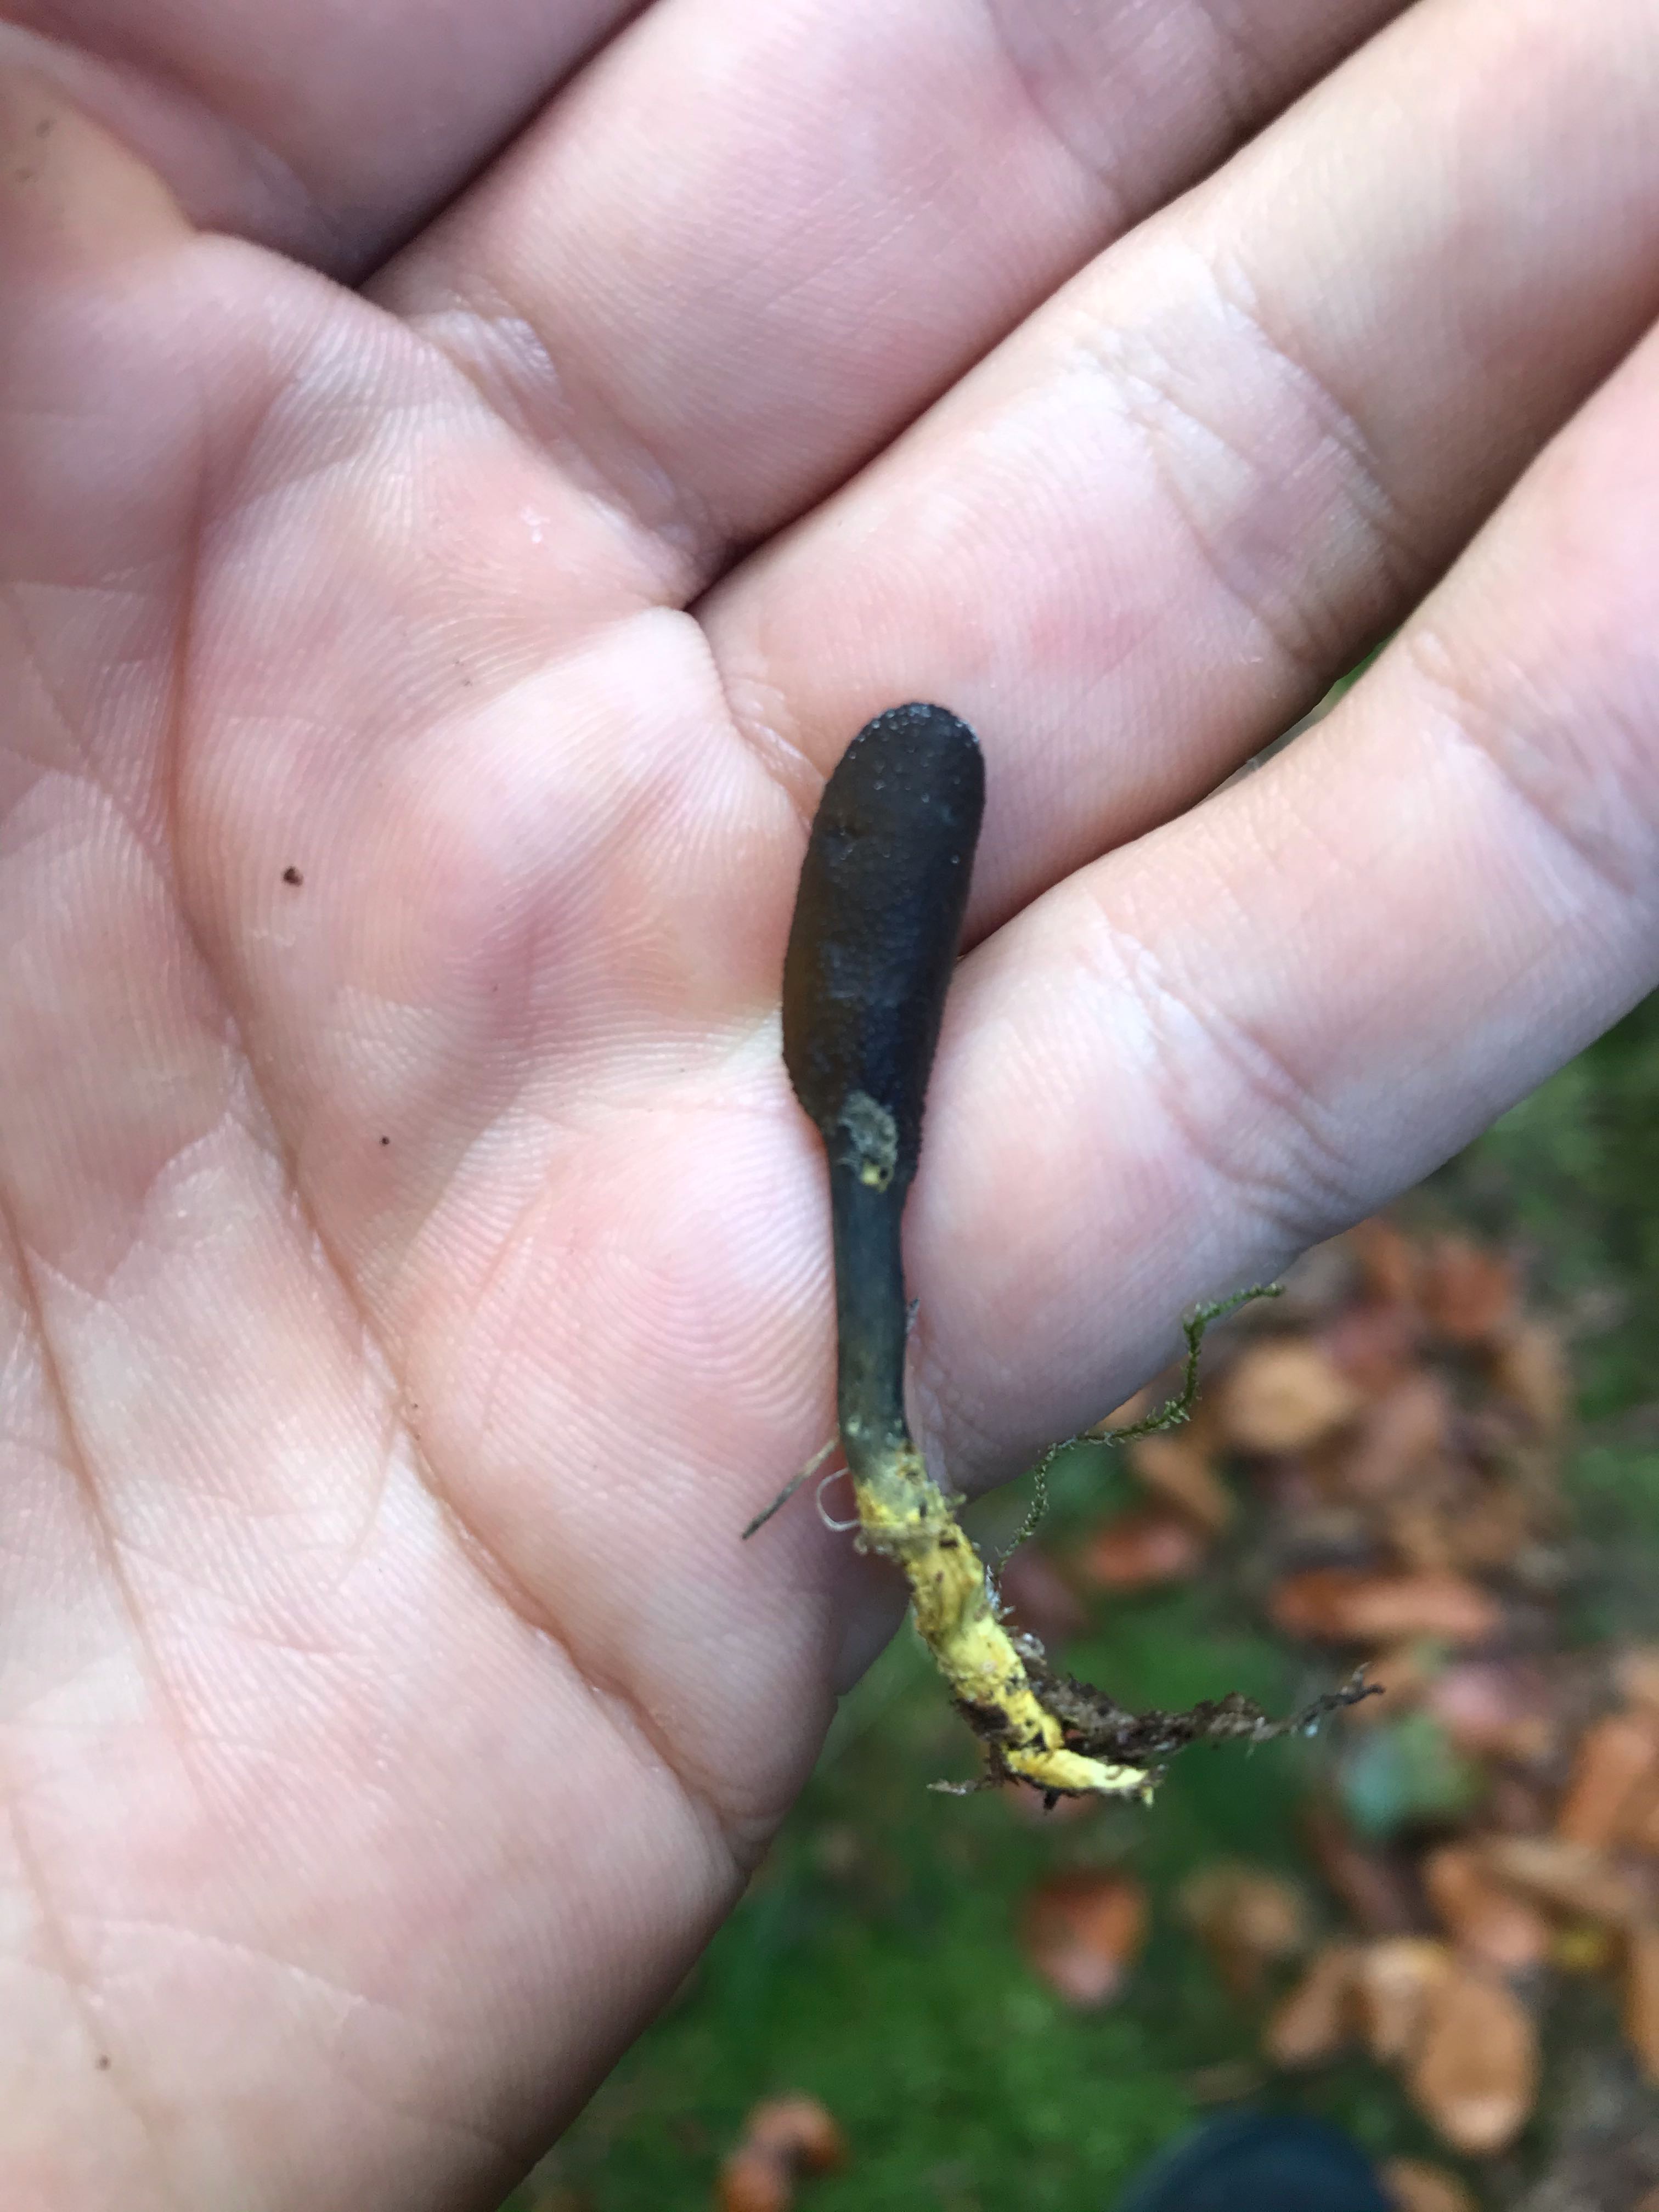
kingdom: Fungi
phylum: Ascomycota
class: Sordariomycetes
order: Hypocreales
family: Ophiocordycipitaceae
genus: Tolypocladium
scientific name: Tolypocladium ophioglossoides
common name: slank snyltekølle
